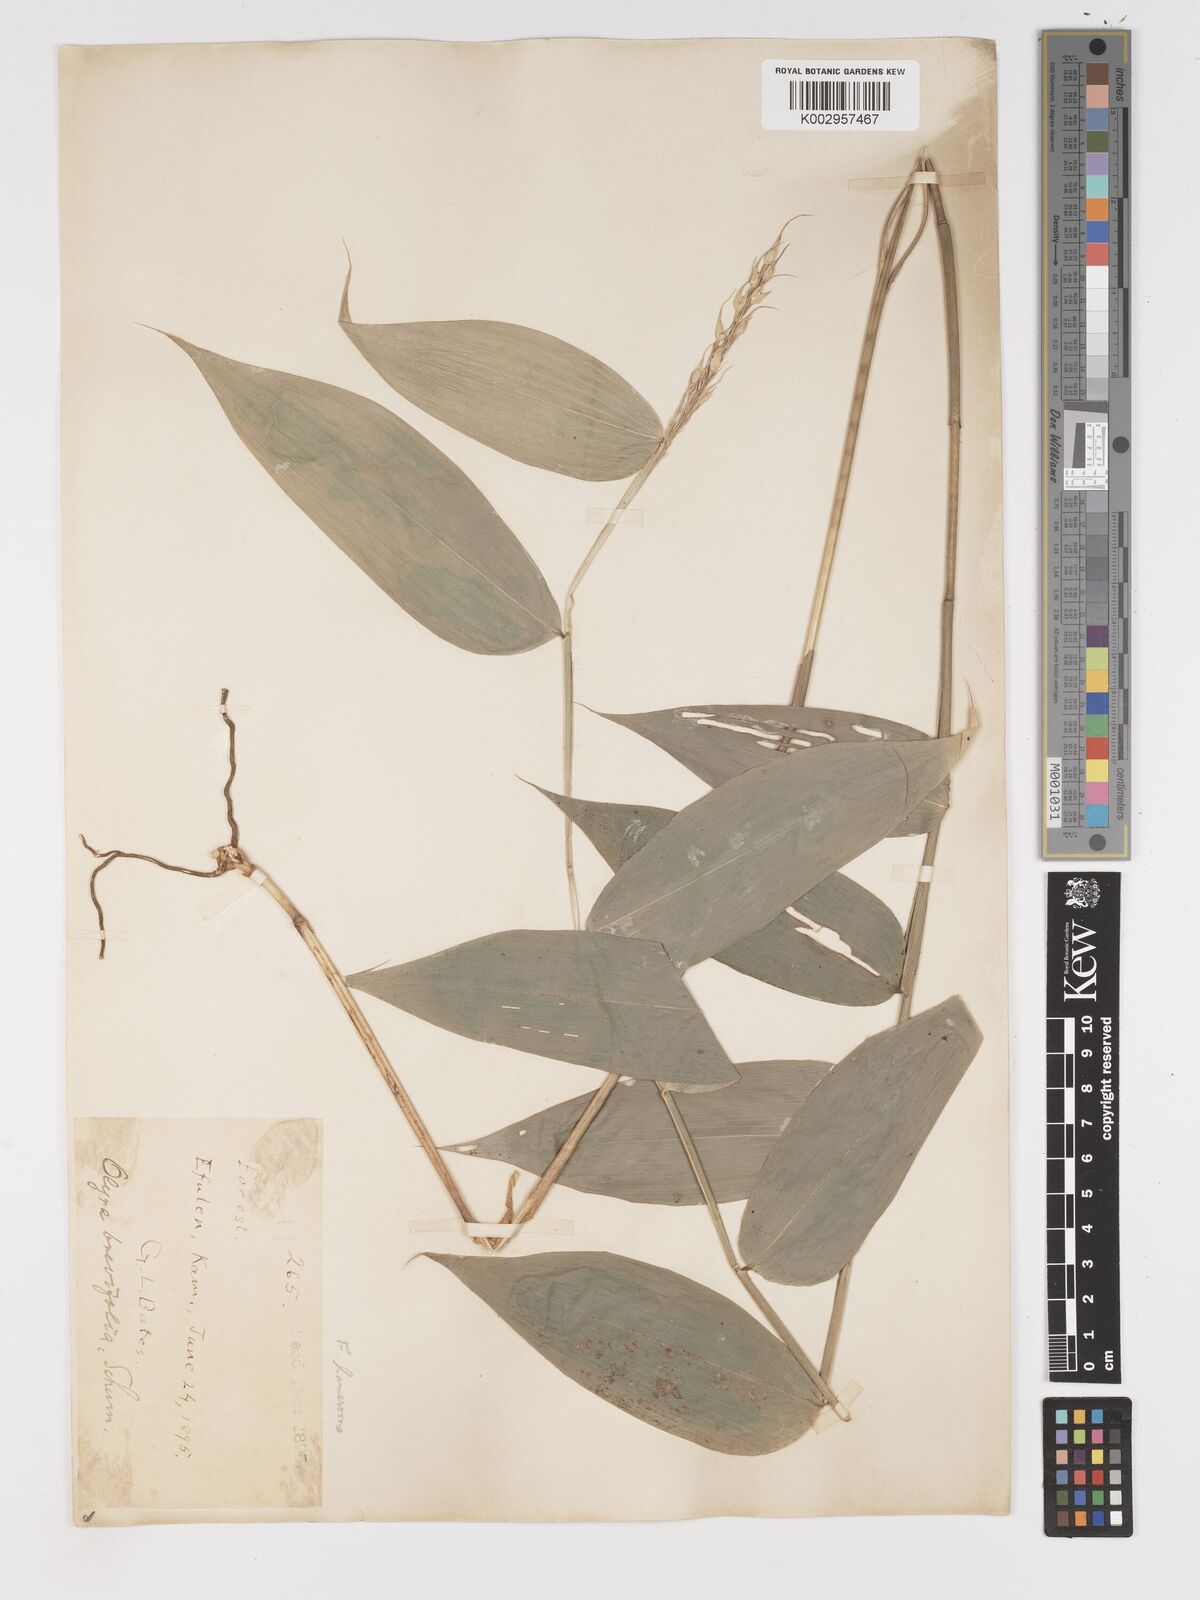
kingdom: Plantae
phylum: Tracheophyta
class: Liliopsida
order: Poales
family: Poaceae
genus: Olyra
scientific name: Olyra latifolia
